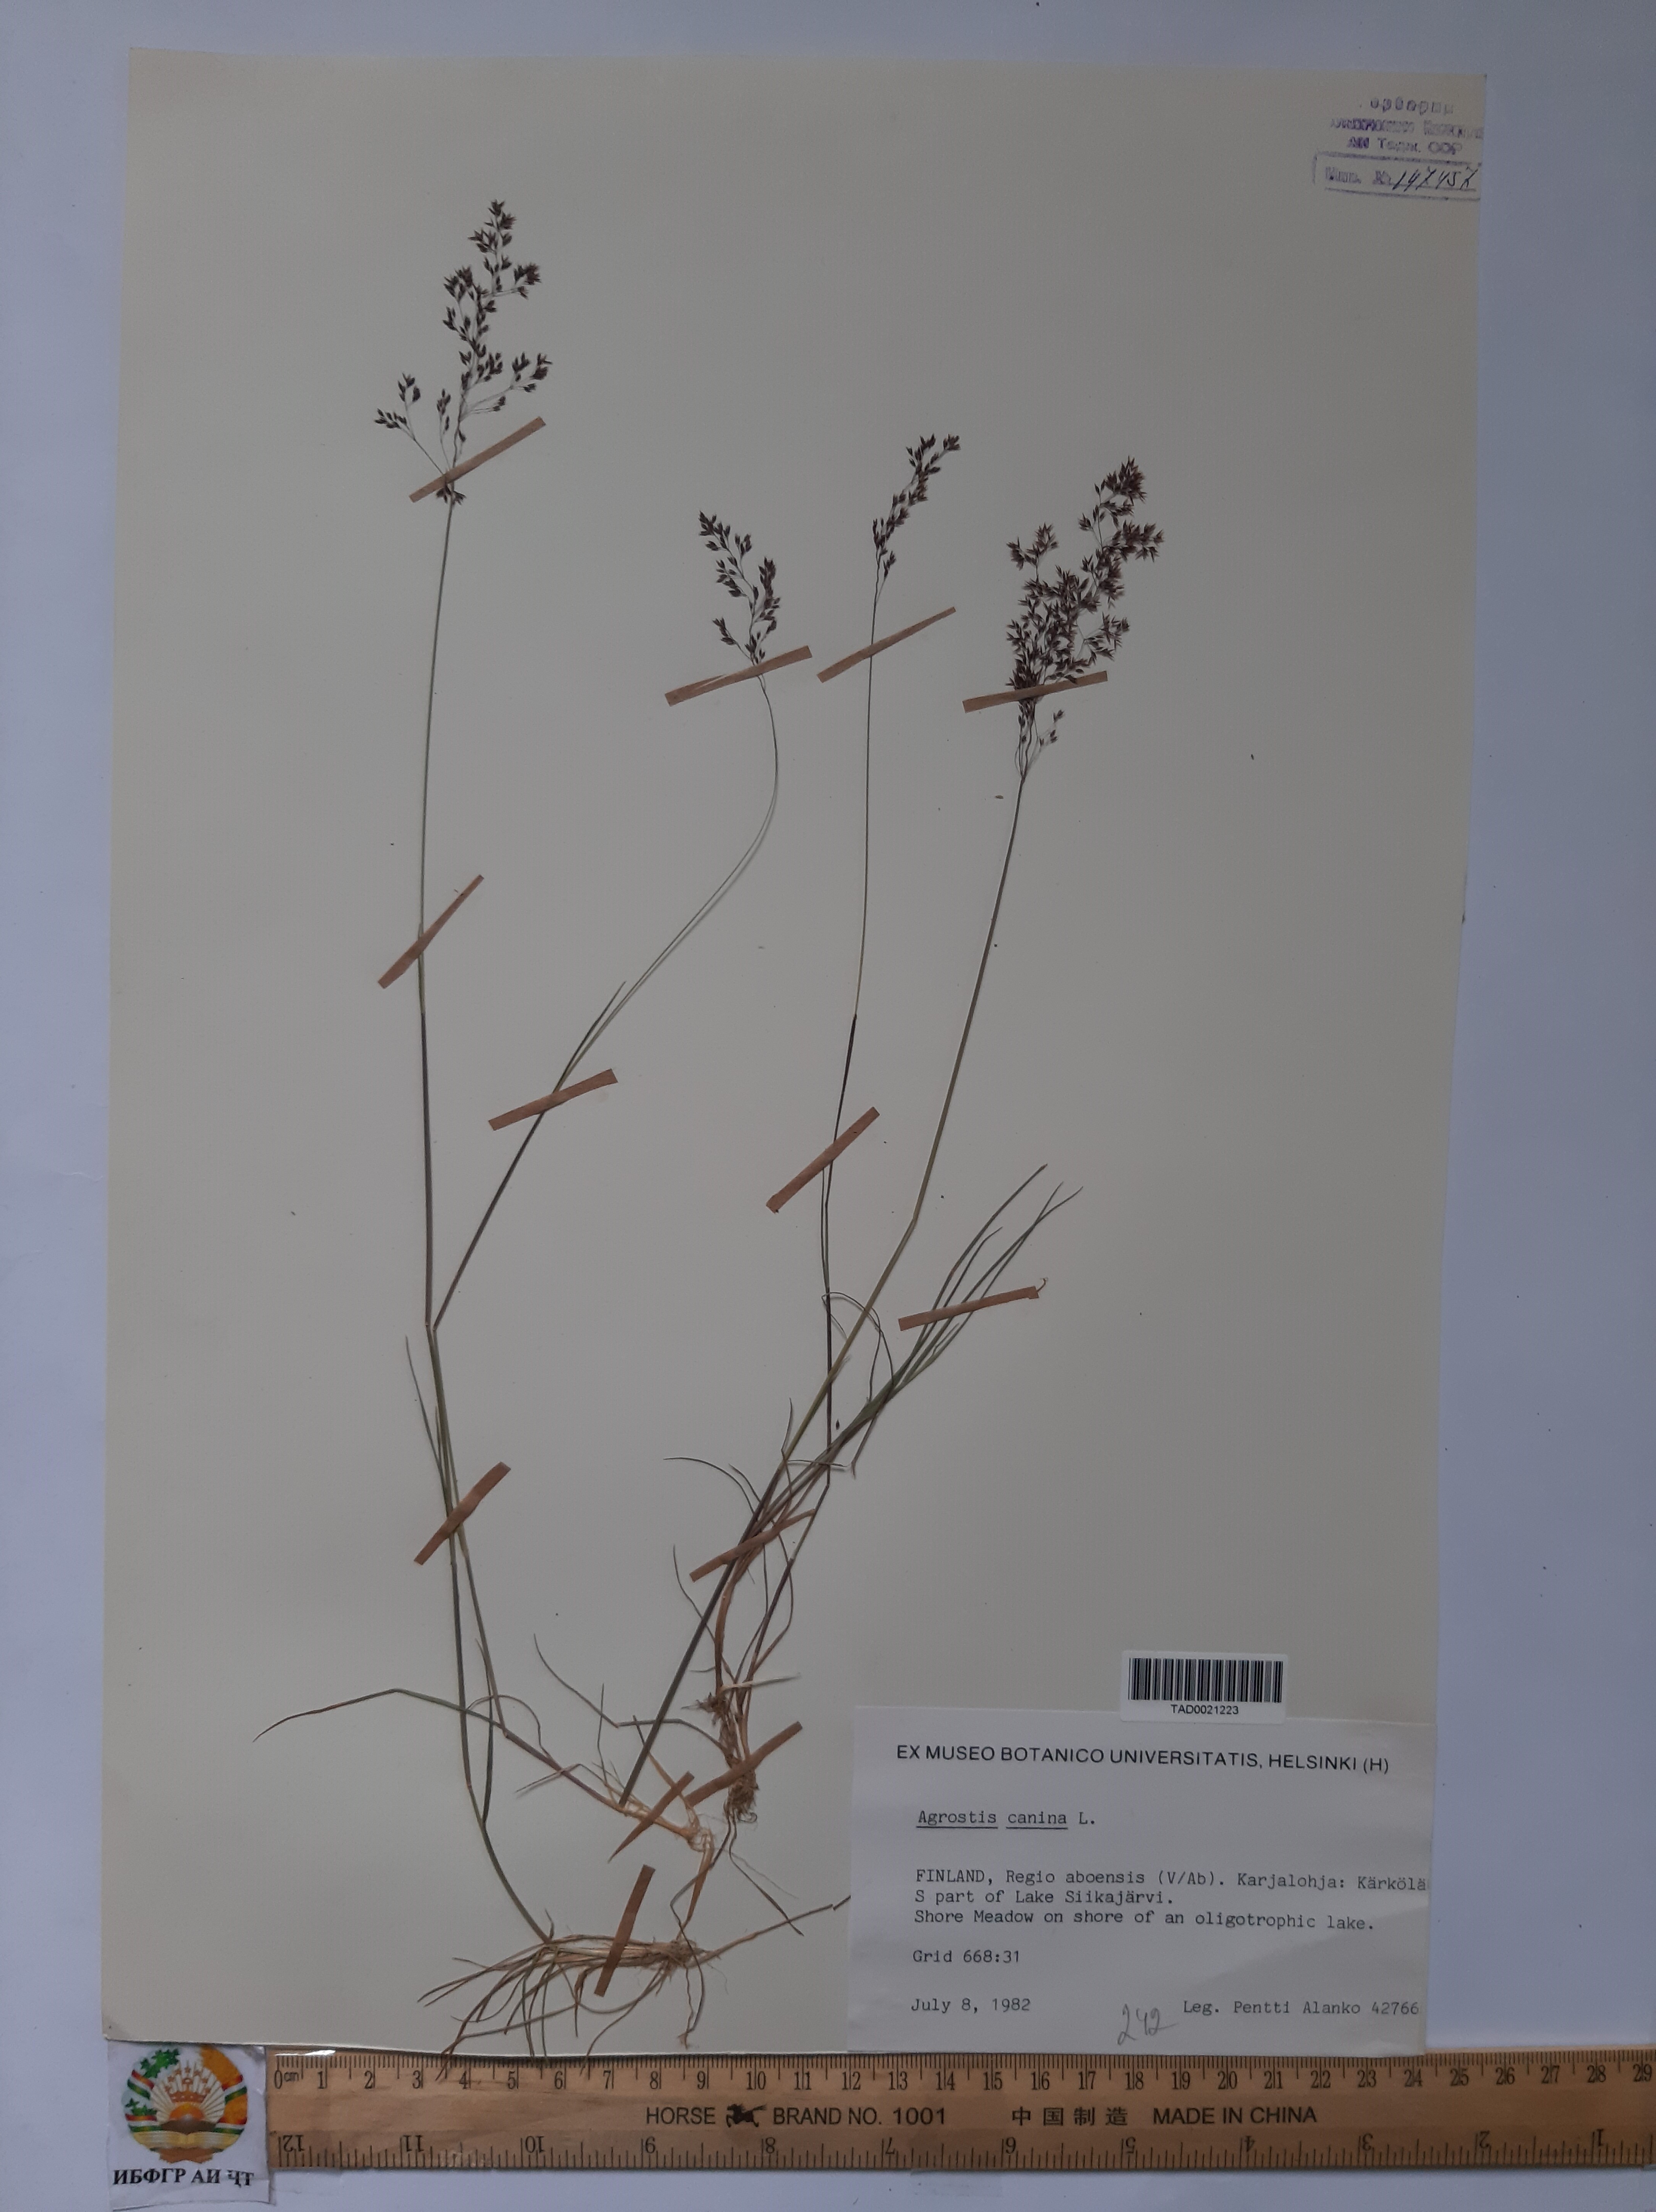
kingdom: Plantae
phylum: Tracheophyta
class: Liliopsida
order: Poales
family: Poaceae
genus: Agrostis
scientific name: Agrostis canina
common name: Velvet bent
